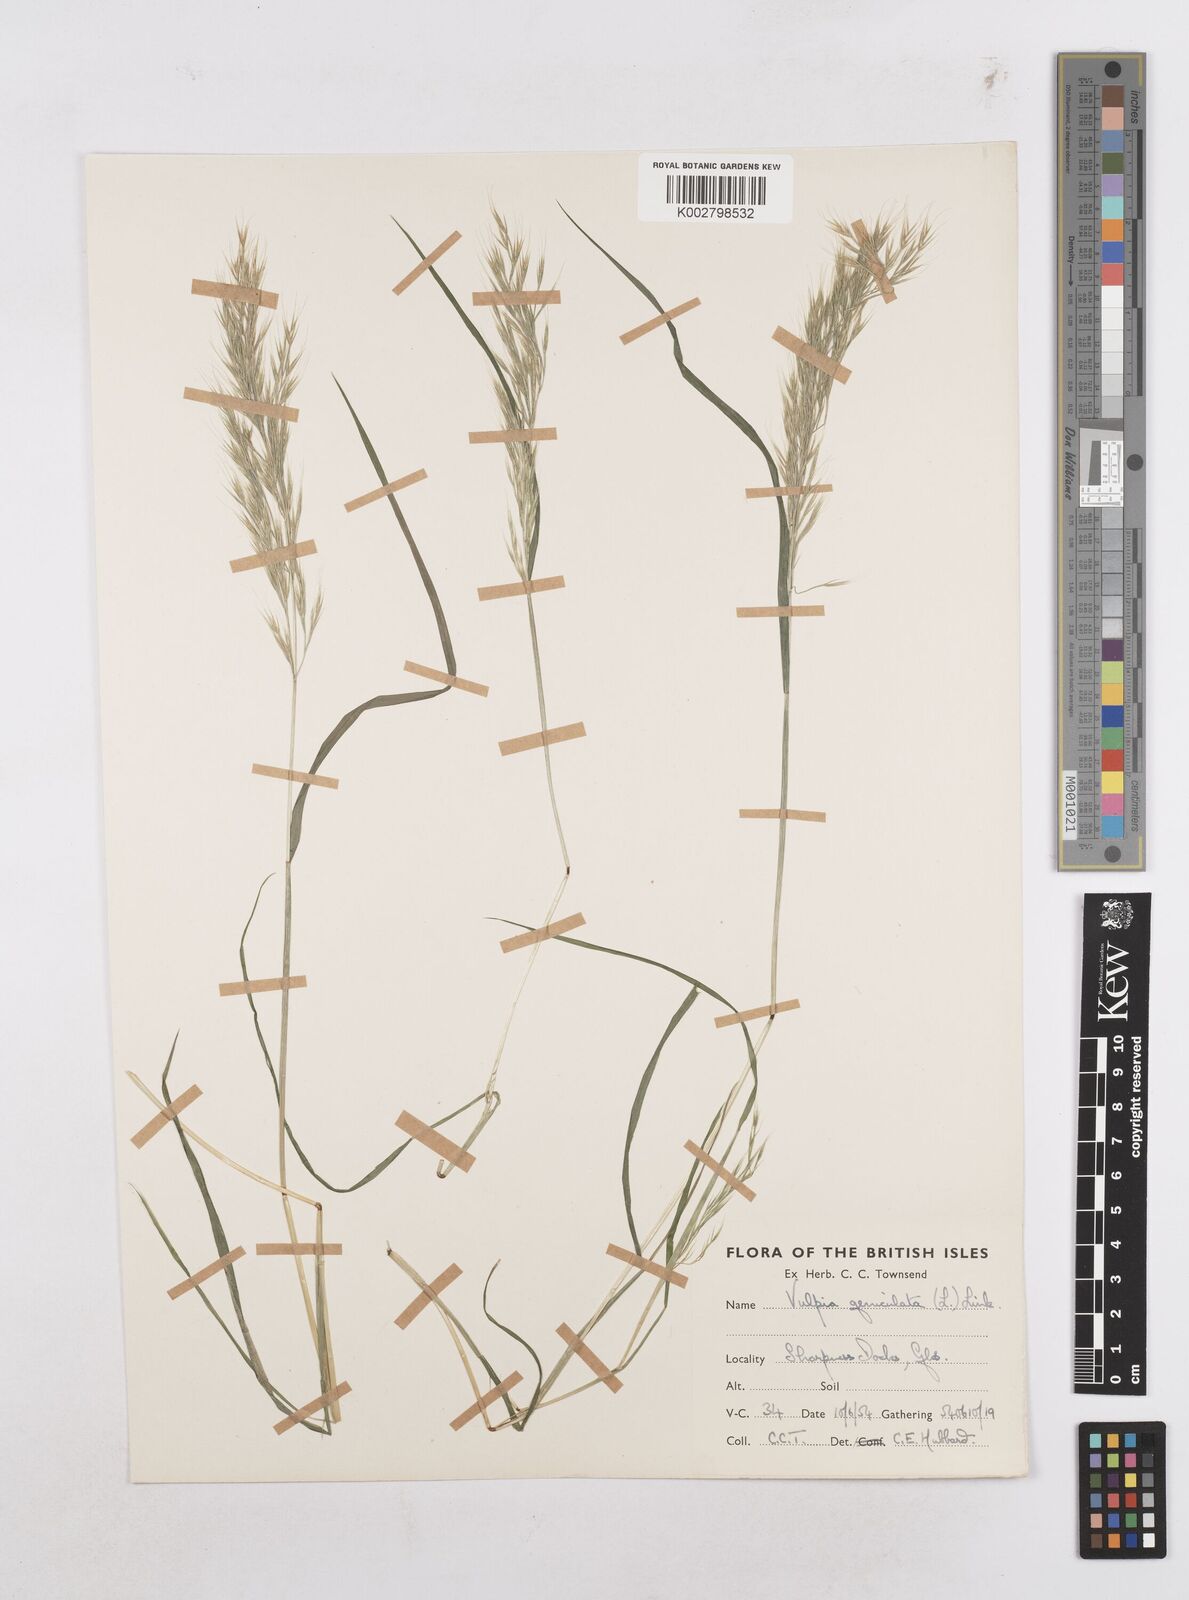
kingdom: Plantae
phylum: Tracheophyta
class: Liliopsida
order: Poales
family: Poaceae
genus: Festuca
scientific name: Festuca geniculata
